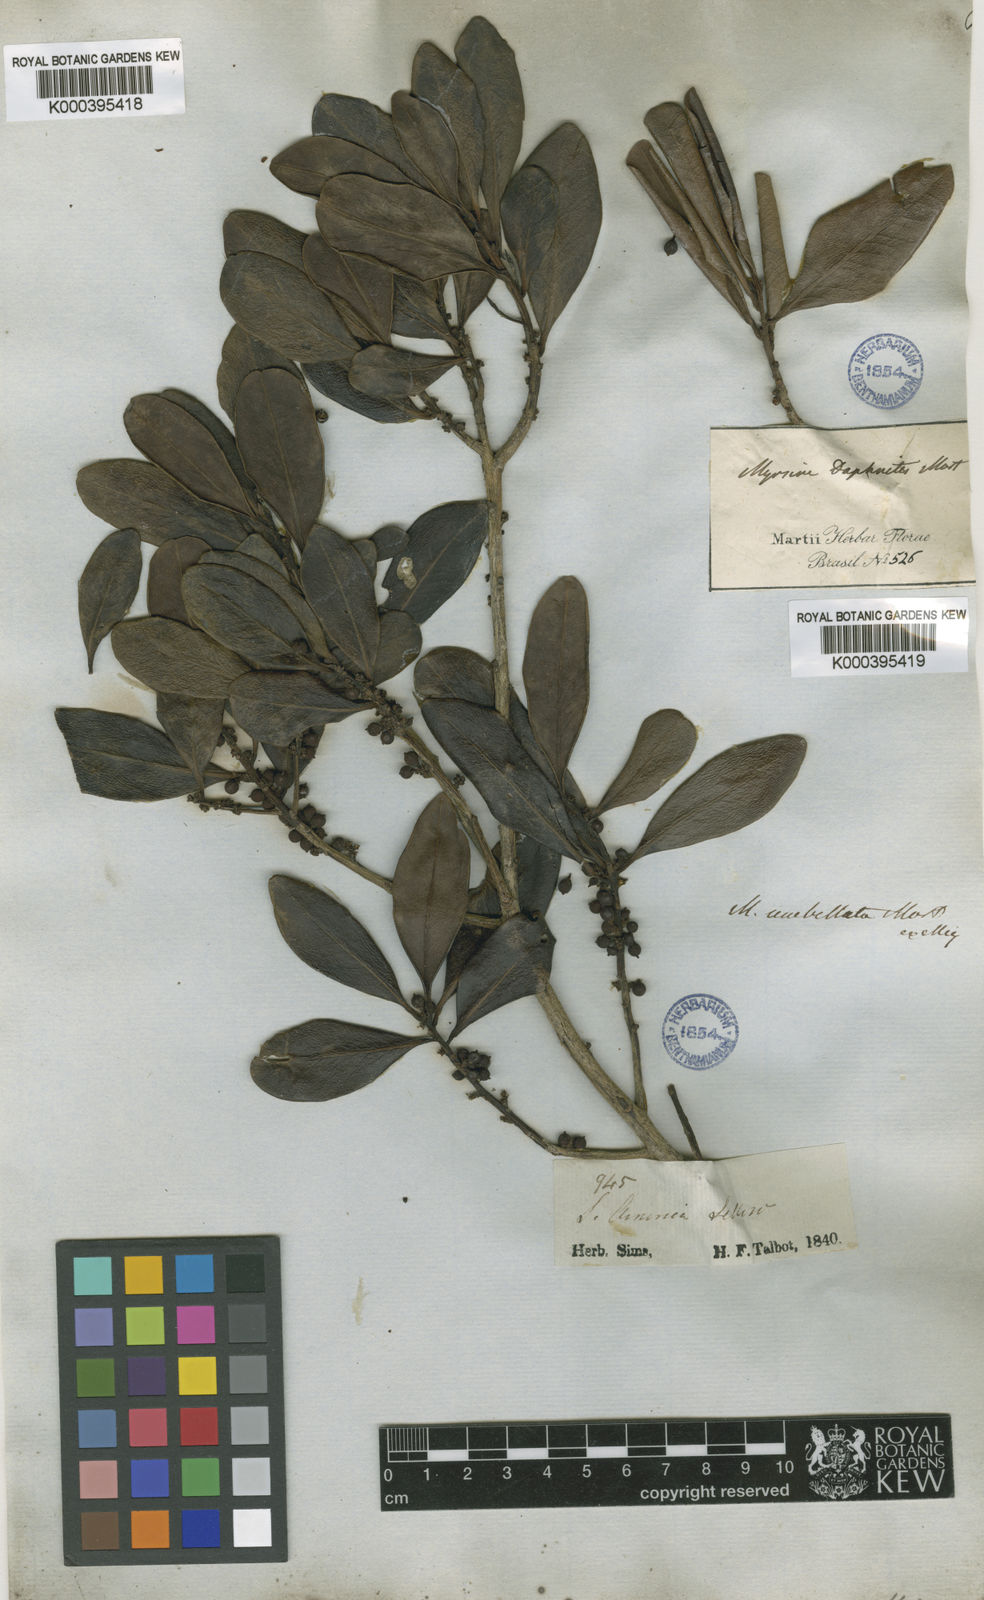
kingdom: Plantae
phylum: Tracheophyta
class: Magnoliopsida
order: Ericales
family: Primulaceae
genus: Myrsine
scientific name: Myrsine umbellata
